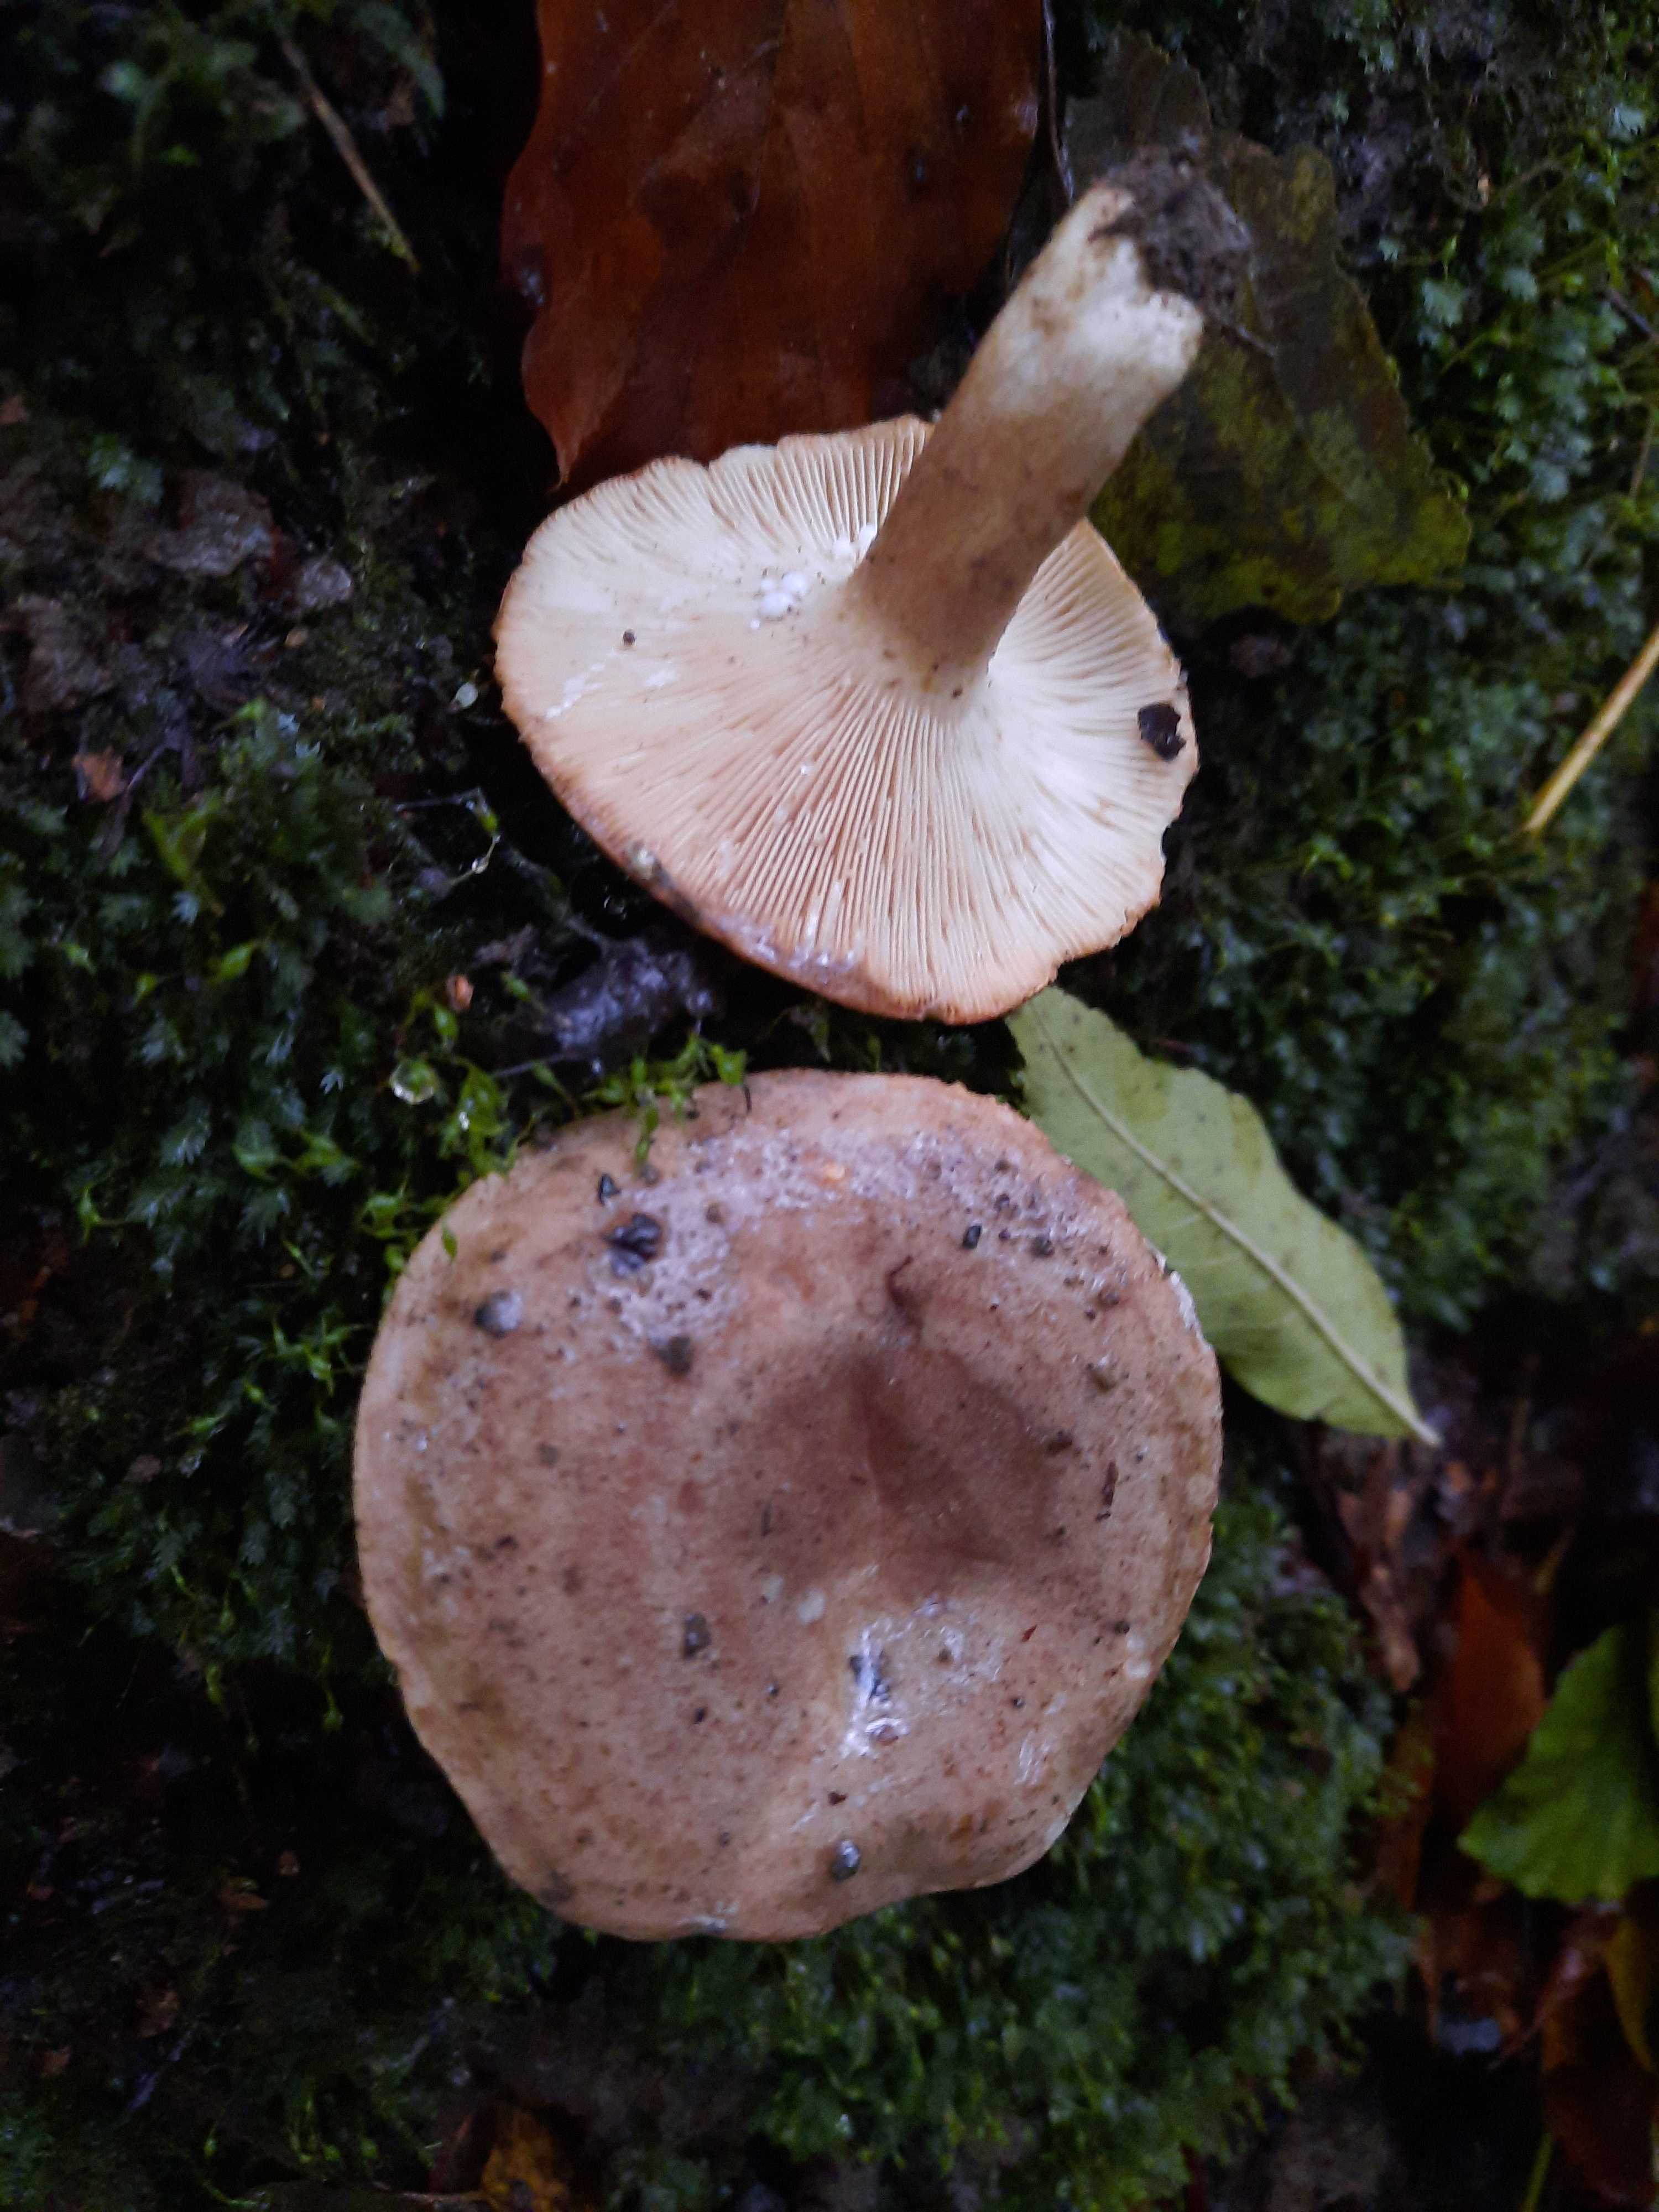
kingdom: Fungi
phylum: Basidiomycota
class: Agaricomycetes
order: Russulales
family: Russulaceae
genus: Lactarius
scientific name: Lactarius fluens
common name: lysrandet mælkehat
